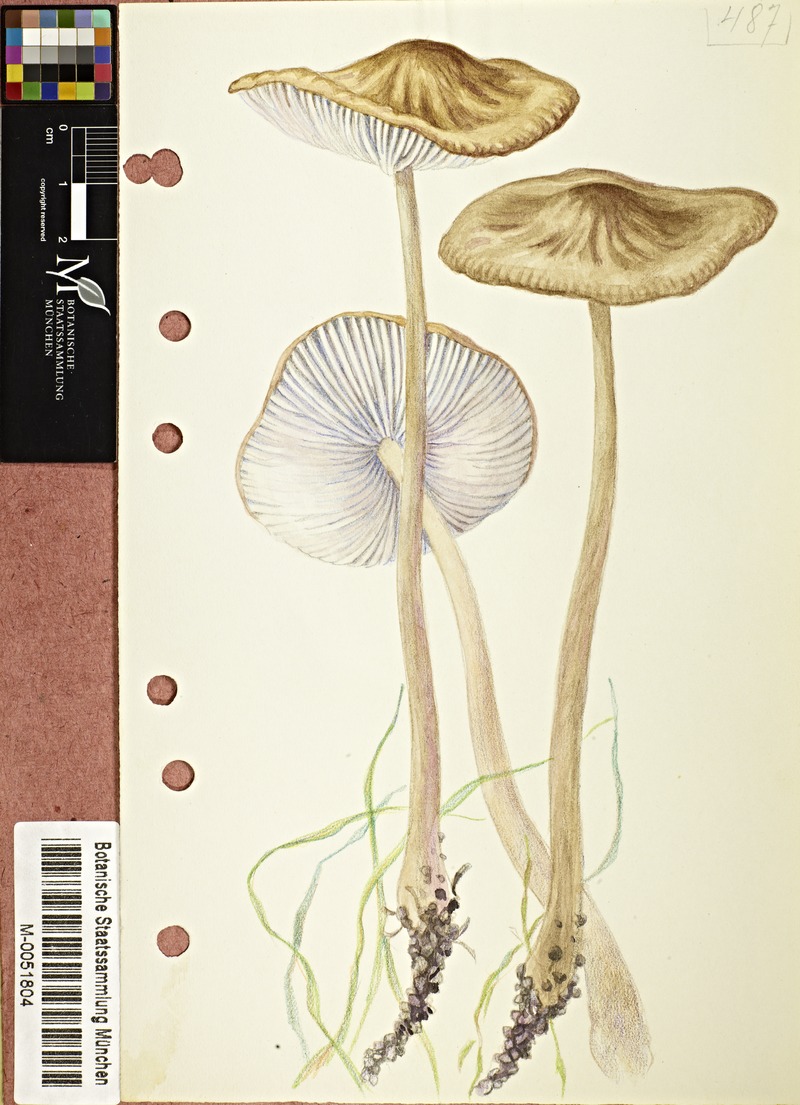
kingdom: Fungi
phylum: Basidiomycota
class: Agaricomycetes
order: Agaricales
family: Physalacriaceae
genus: Hymenopellis
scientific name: Hymenopellis radicata
